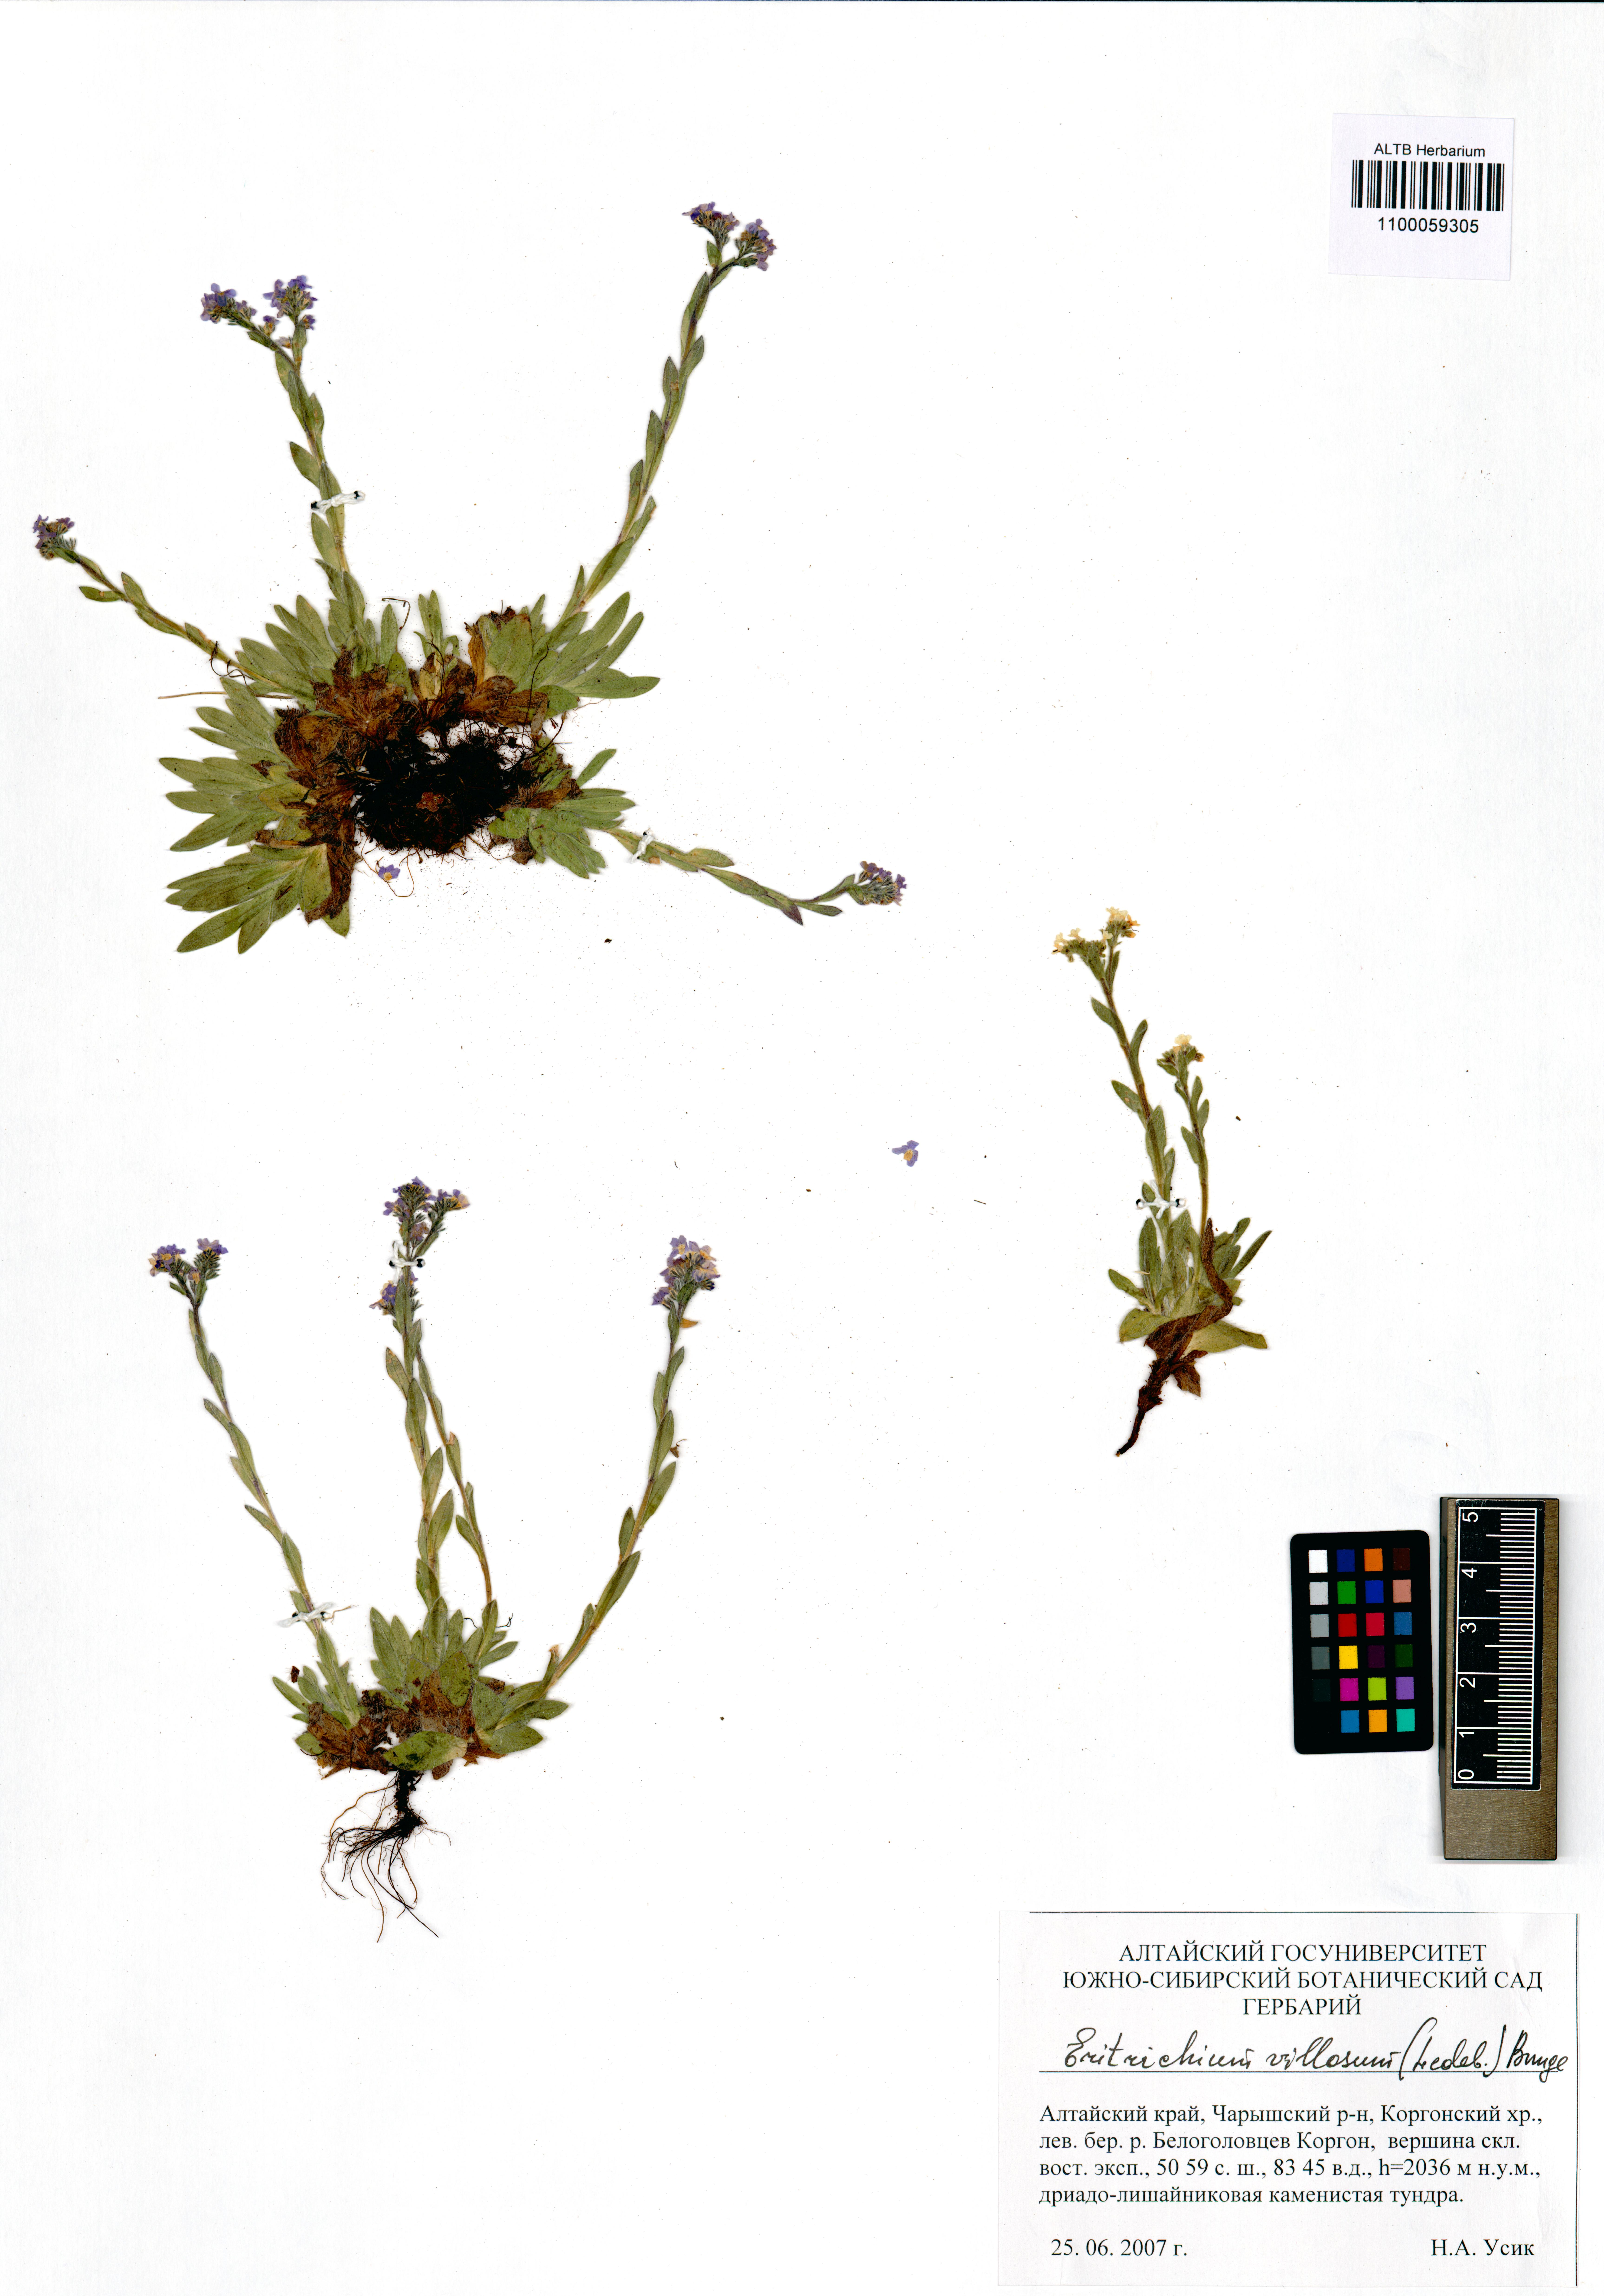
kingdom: Plantae
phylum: Tracheophyta
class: Magnoliopsida
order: Boraginales
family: Boraginaceae
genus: Eritrichium
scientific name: Eritrichium villosum
